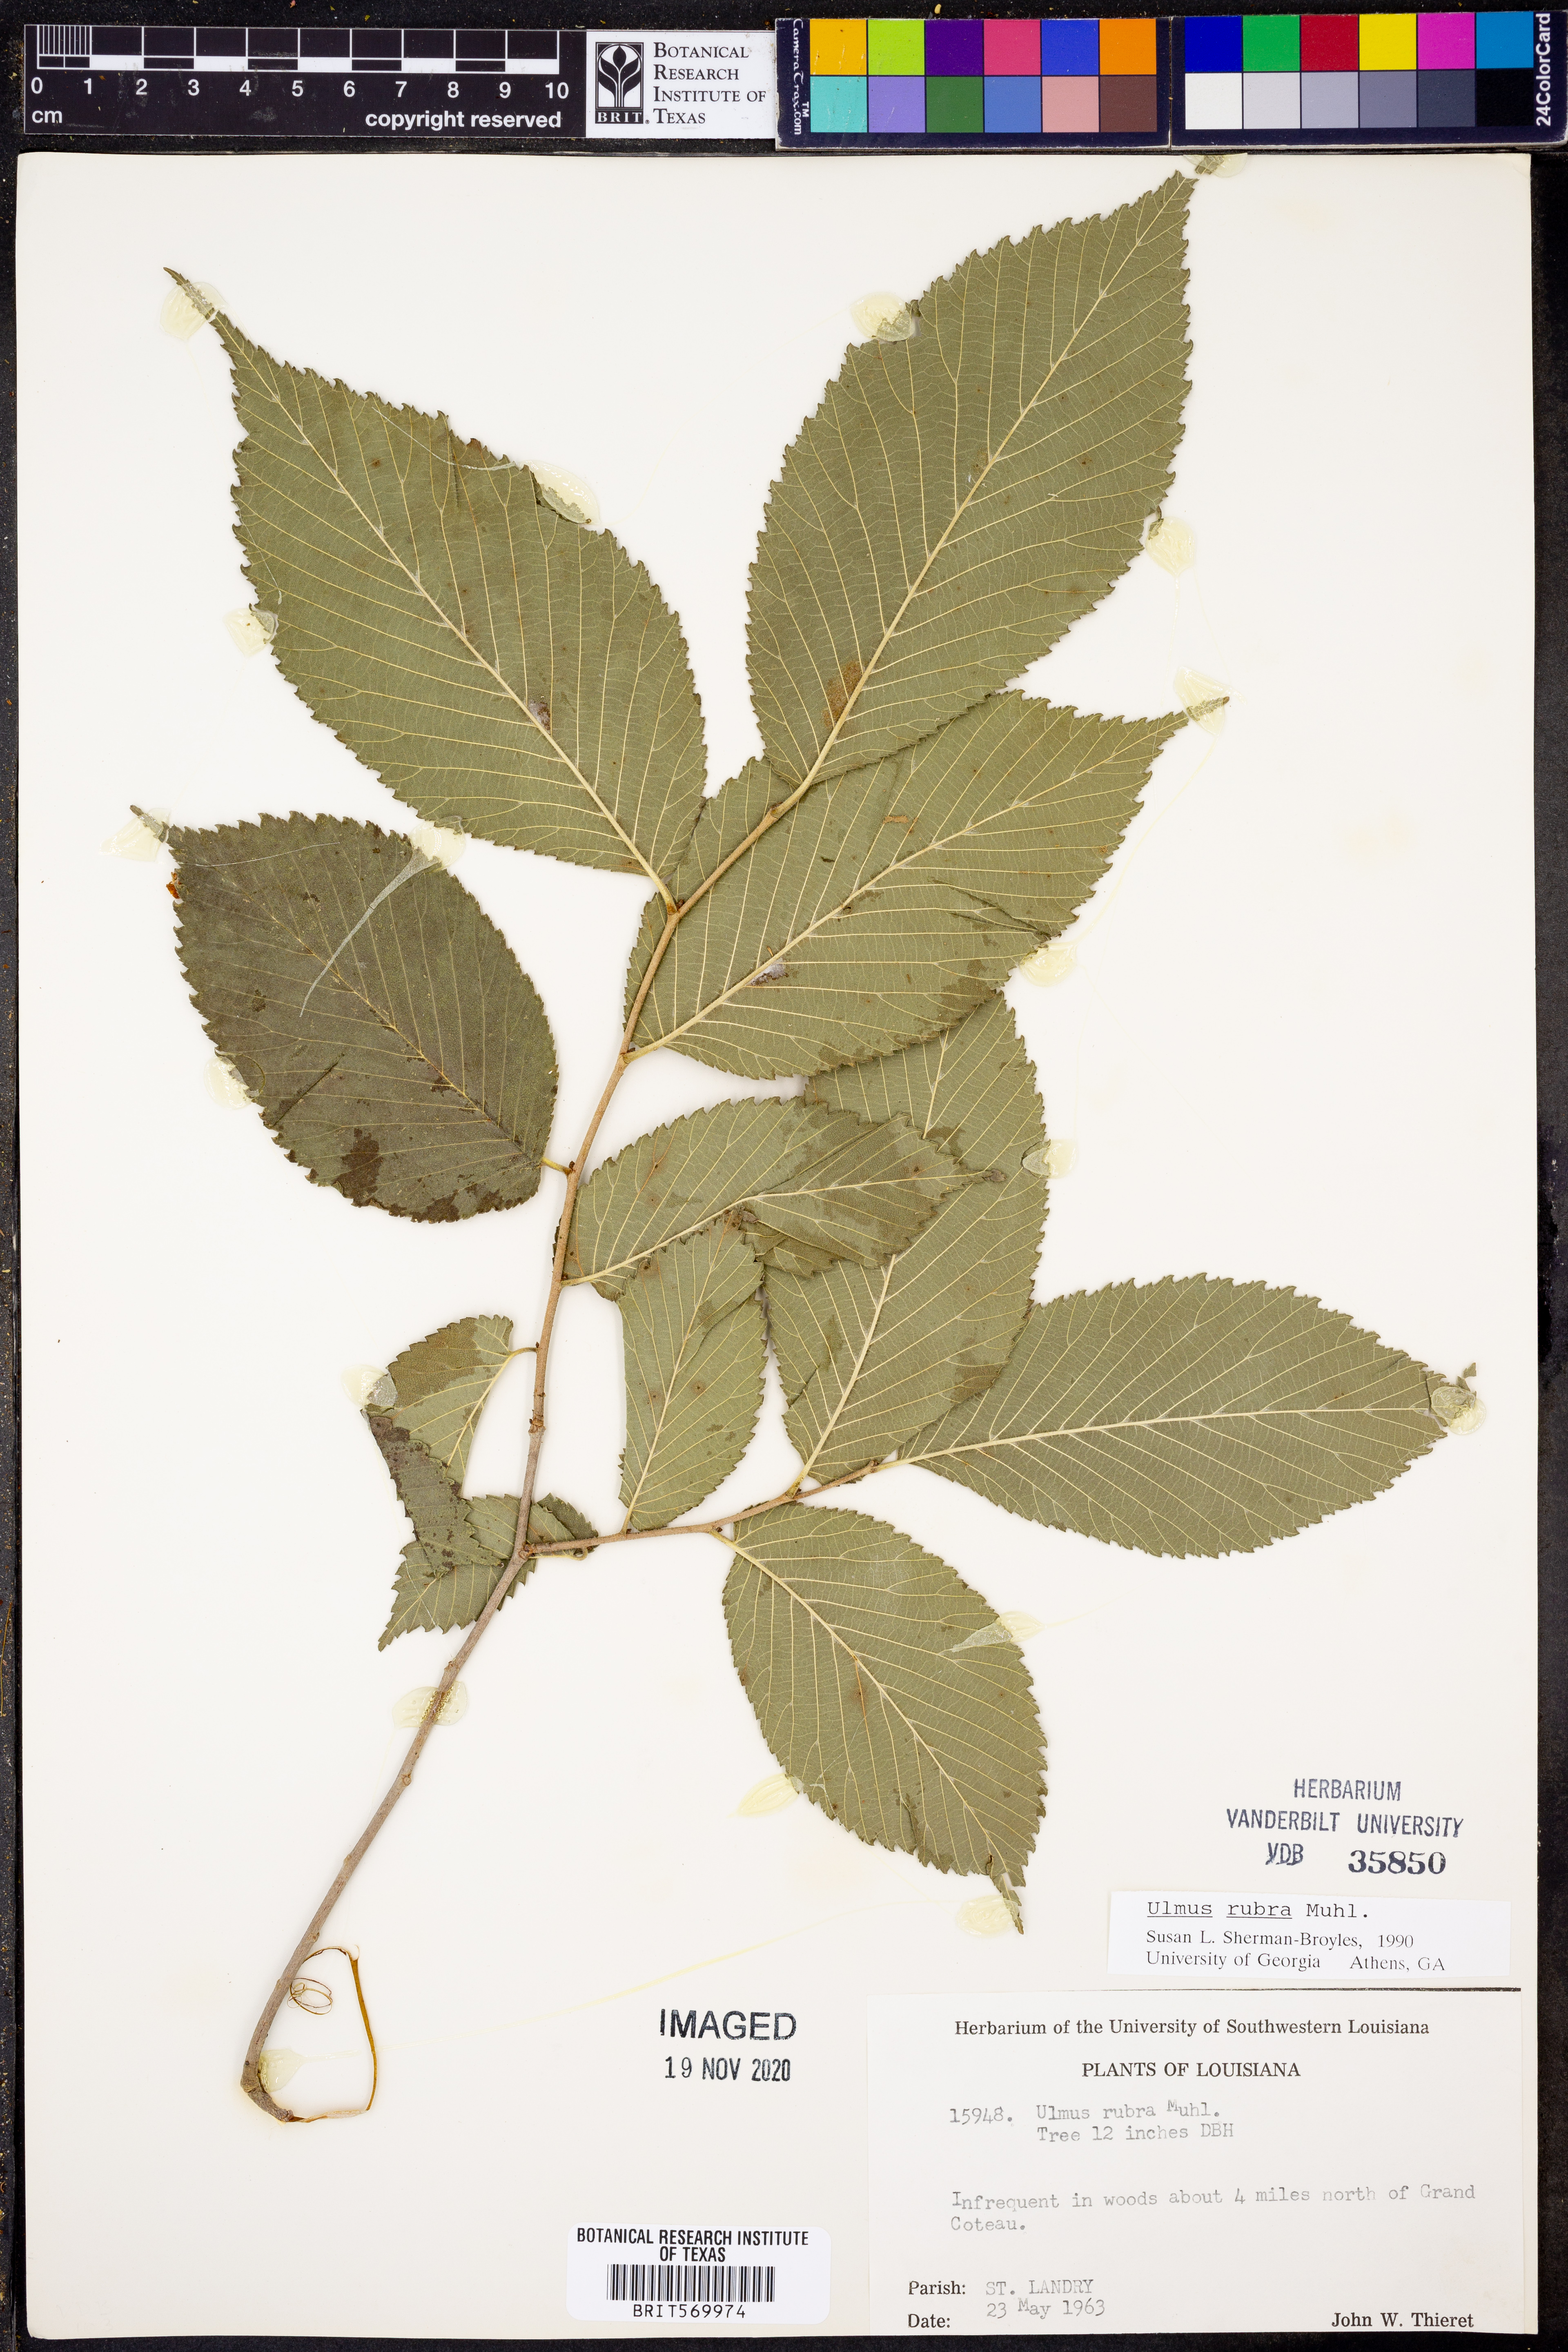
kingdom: Plantae
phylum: Tracheophyta
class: Magnoliopsida
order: Rosales
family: Ulmaceae
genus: Ulmus
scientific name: Ulmus rubra
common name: Slippery elm
